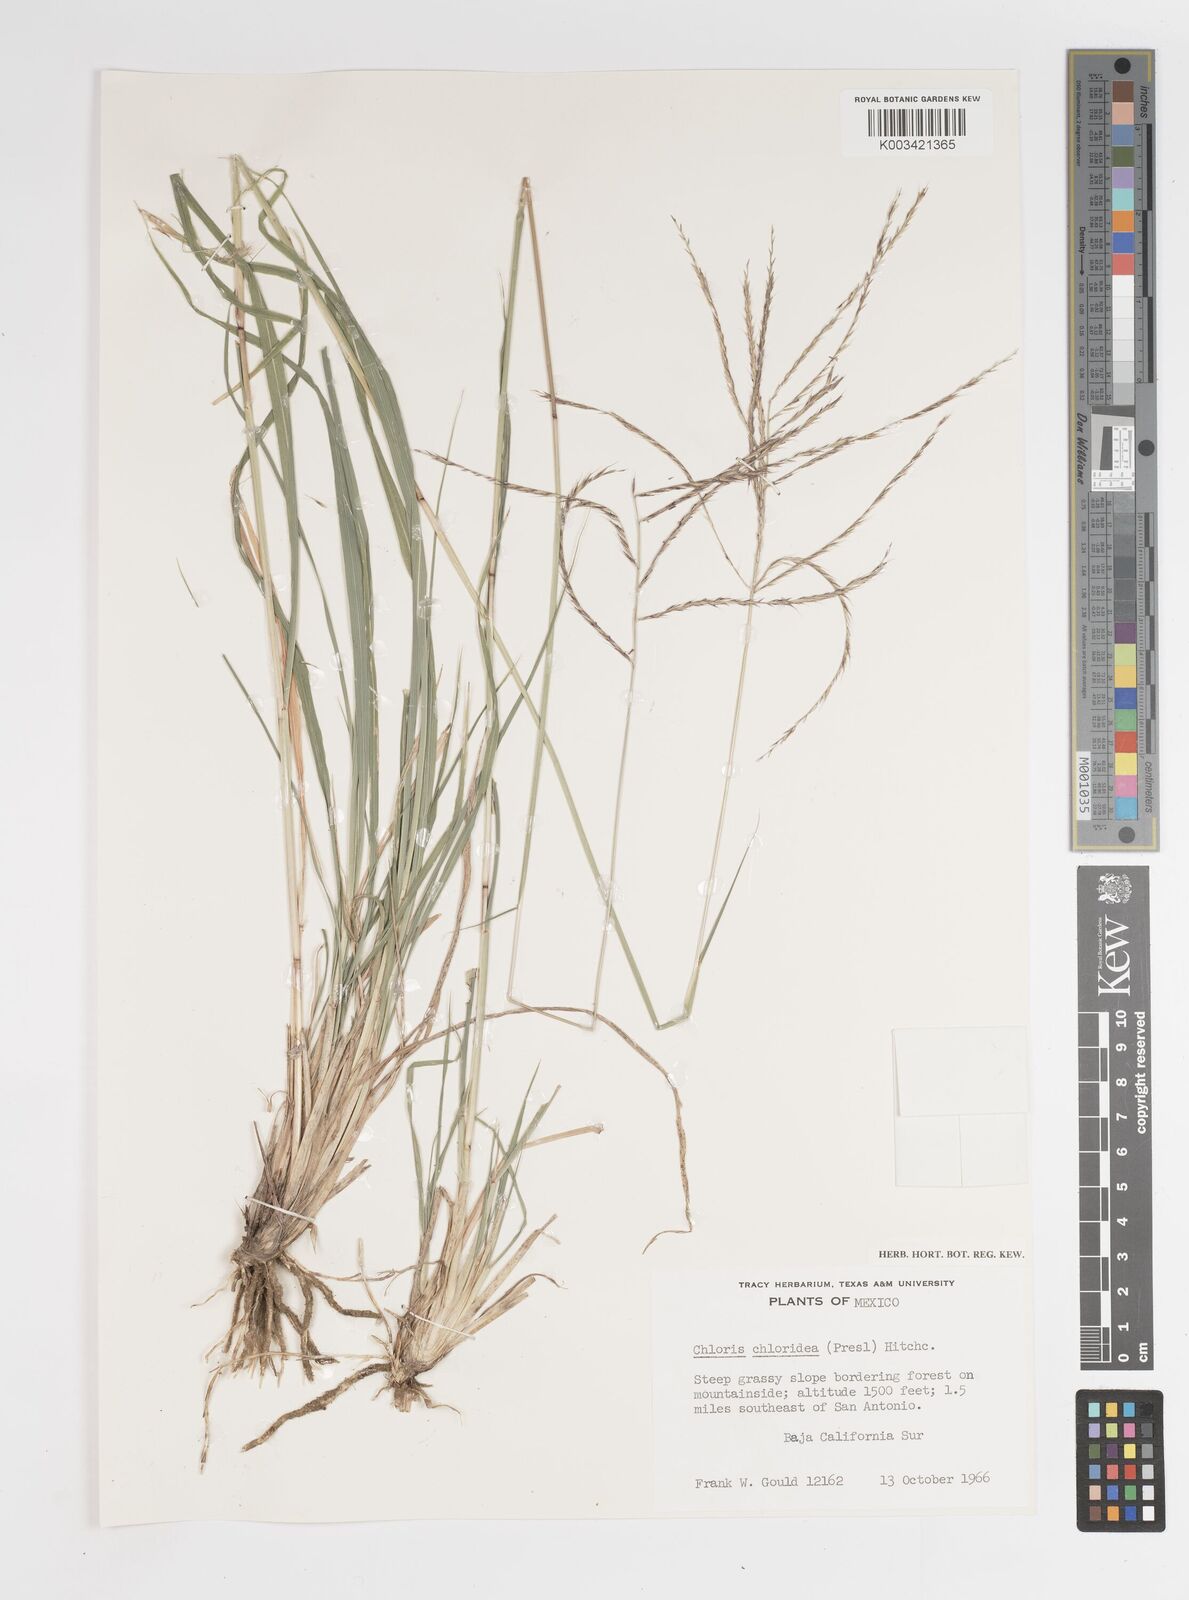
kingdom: Plantae
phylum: Tracheophyta
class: Liliopsida
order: Poales
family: Poaceae
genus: Tetrapogon
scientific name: Tetrapogon chlorideus
